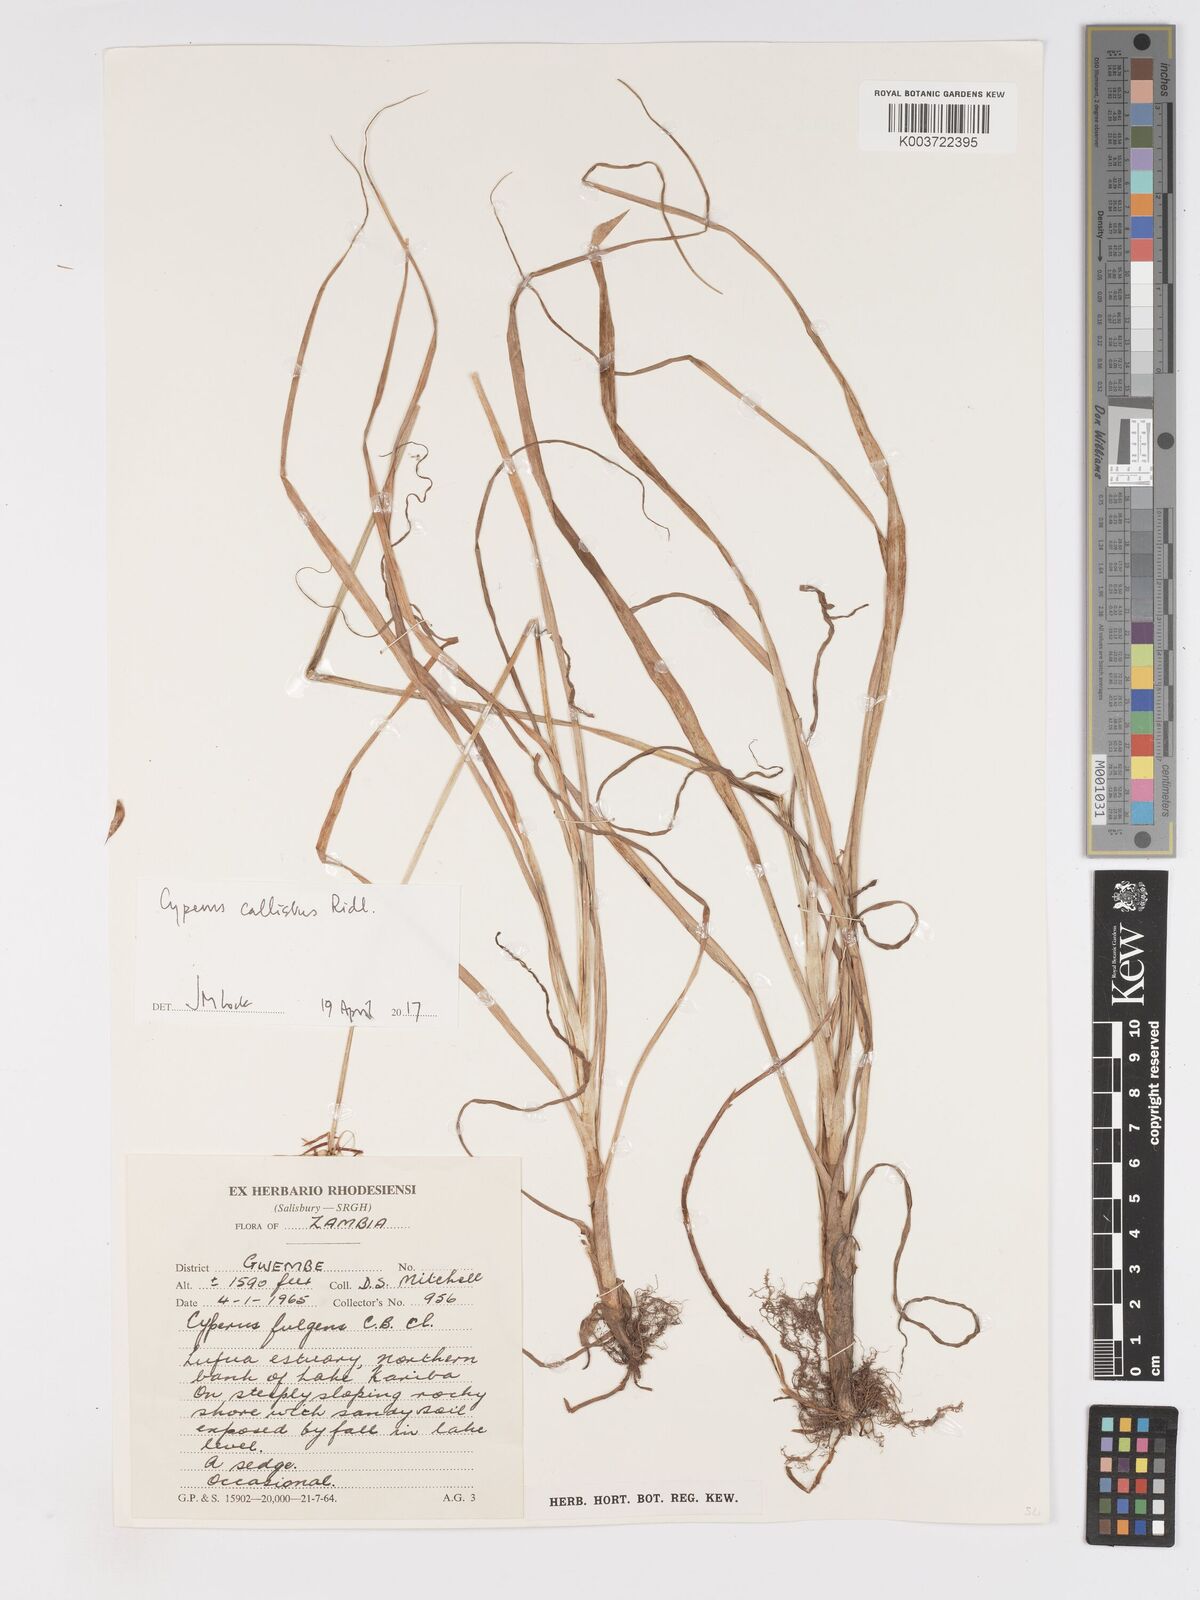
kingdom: Plantae
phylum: Tracheophyta
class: Liliopsida
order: Poales
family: Cyperaceae
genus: Cyperus
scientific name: Cyperus callistus
